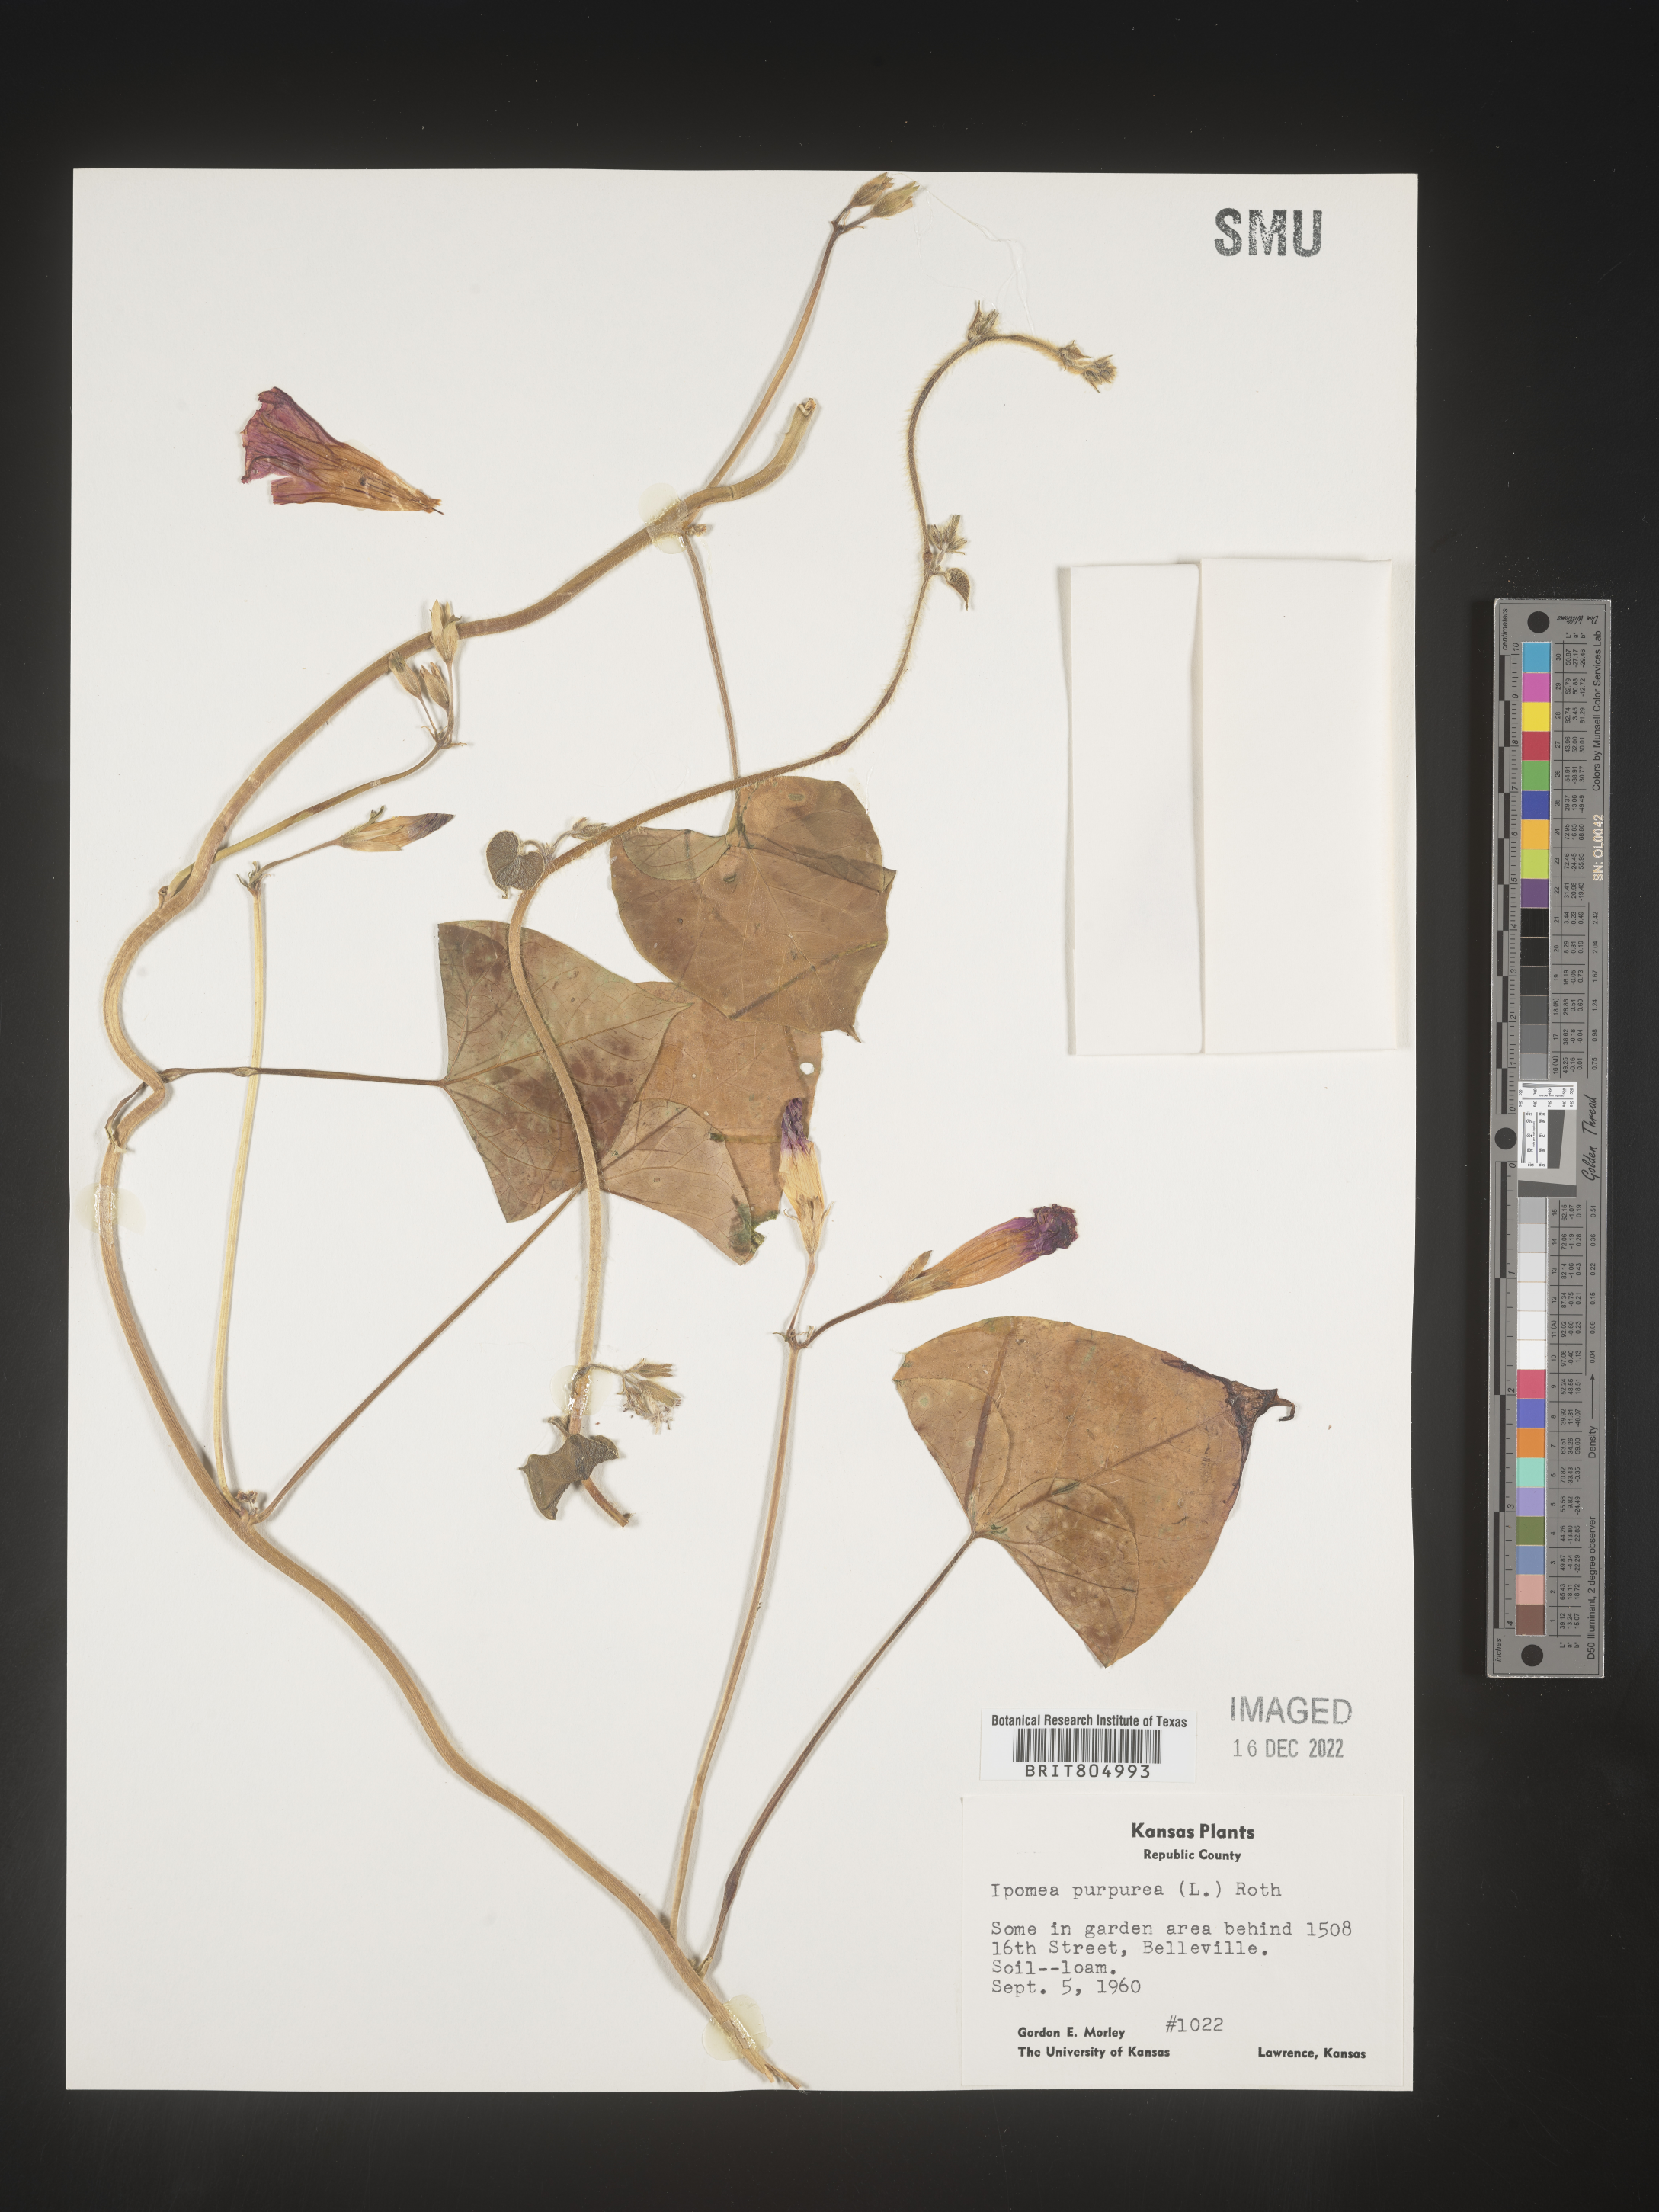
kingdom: Plantae
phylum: Tracheophyta
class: Magnoliopsida
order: Solanales
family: Convolvulaceae
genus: Ipomoea
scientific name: Ipomoea purpurea
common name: Common morning-glory
